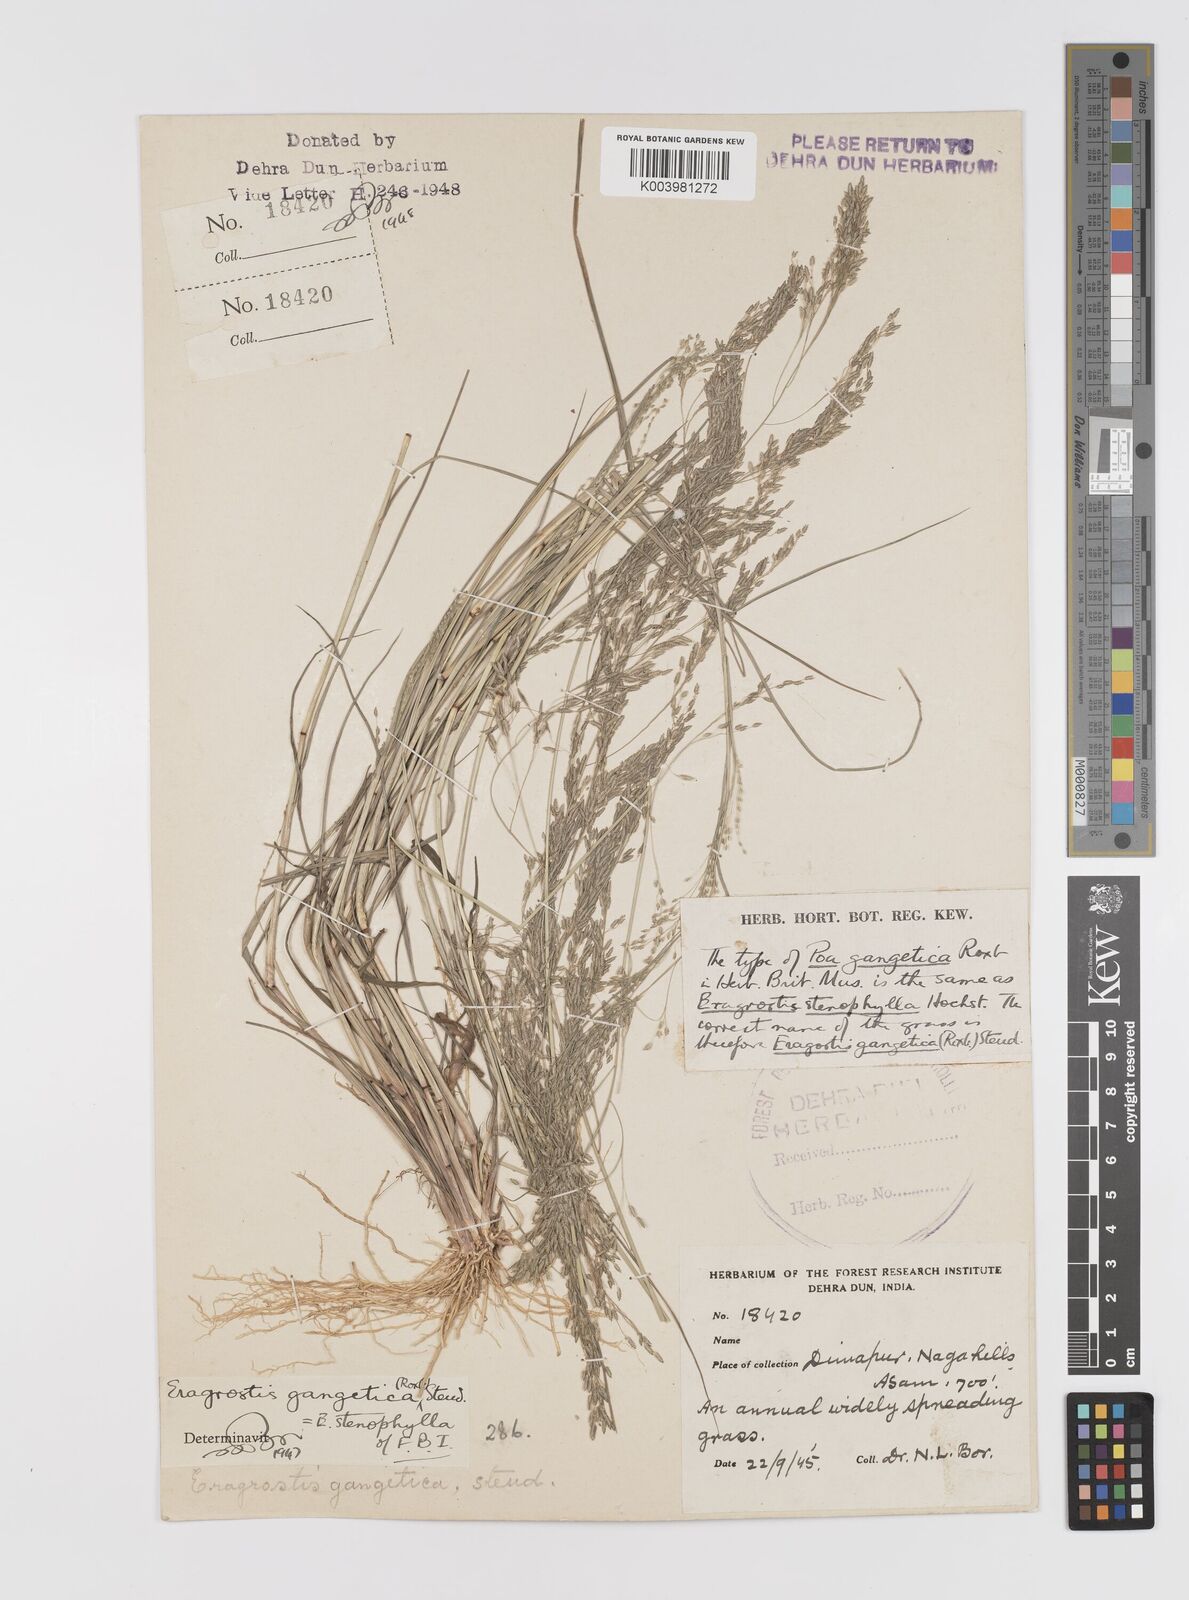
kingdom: Plantae
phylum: Tracheophyta
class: Liliopsida
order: Poales
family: Poaceae
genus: Eragrostis
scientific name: Eragrostis gangetica
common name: Slimflower lovegrass
